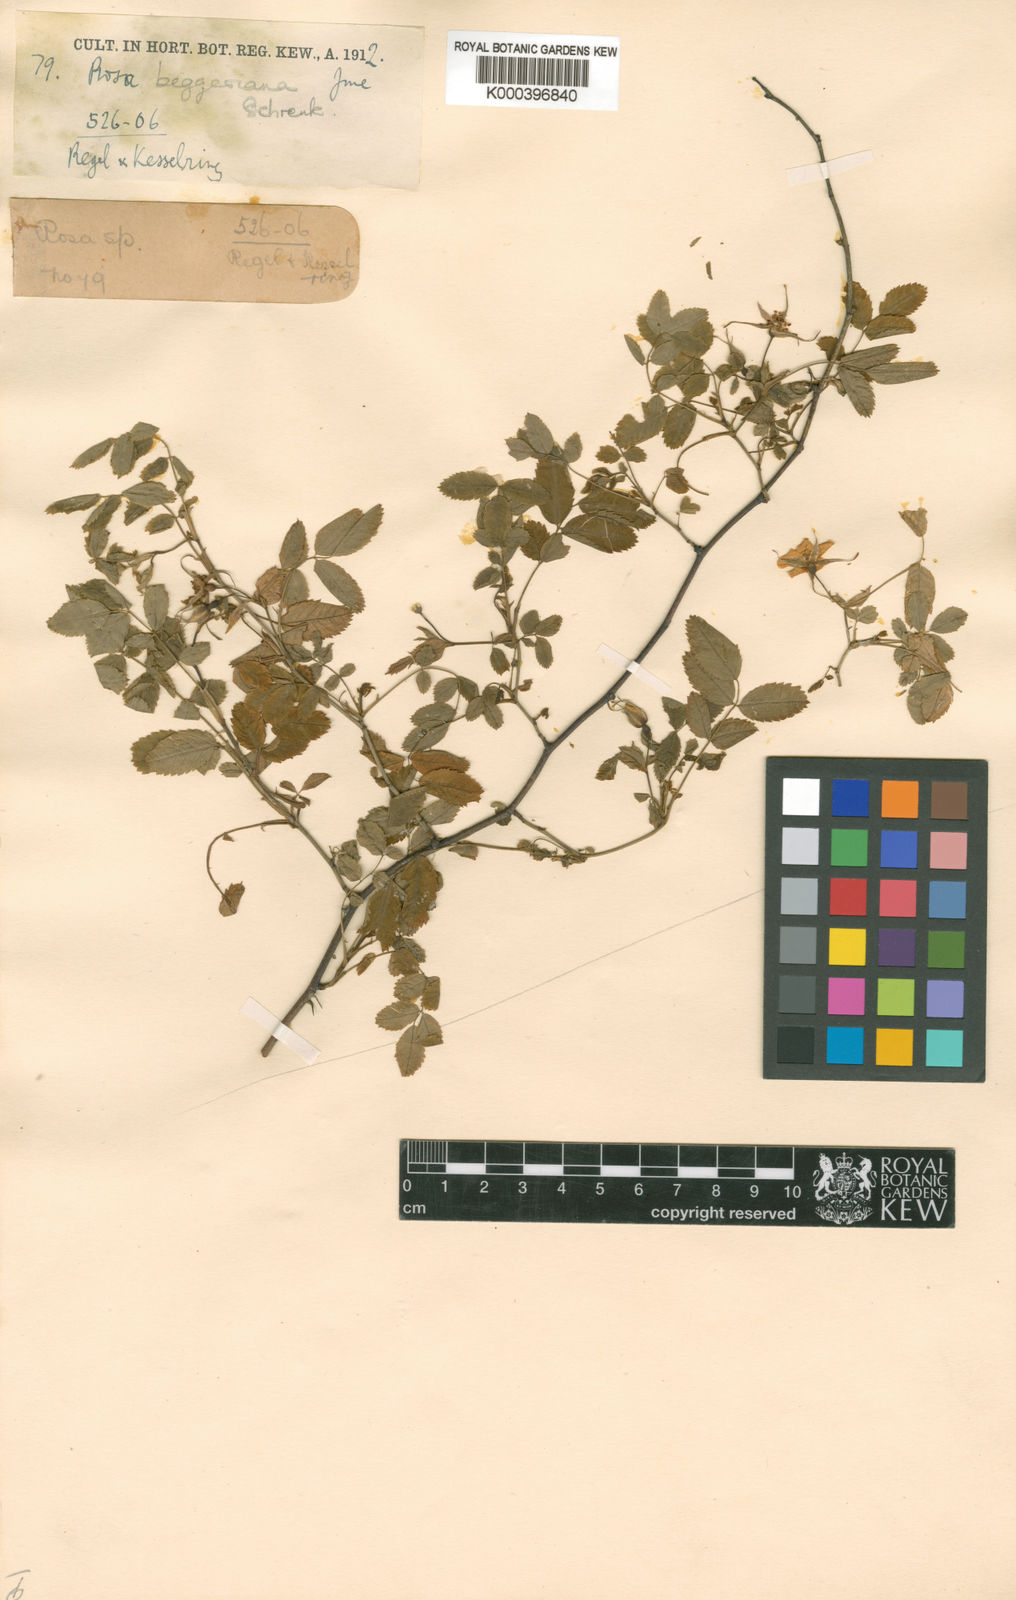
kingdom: Plantae
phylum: Tracheophyta
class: Magnoliopsida
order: Rosales
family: Rosaceae
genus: Rosa
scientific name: Rosa beggeriana
